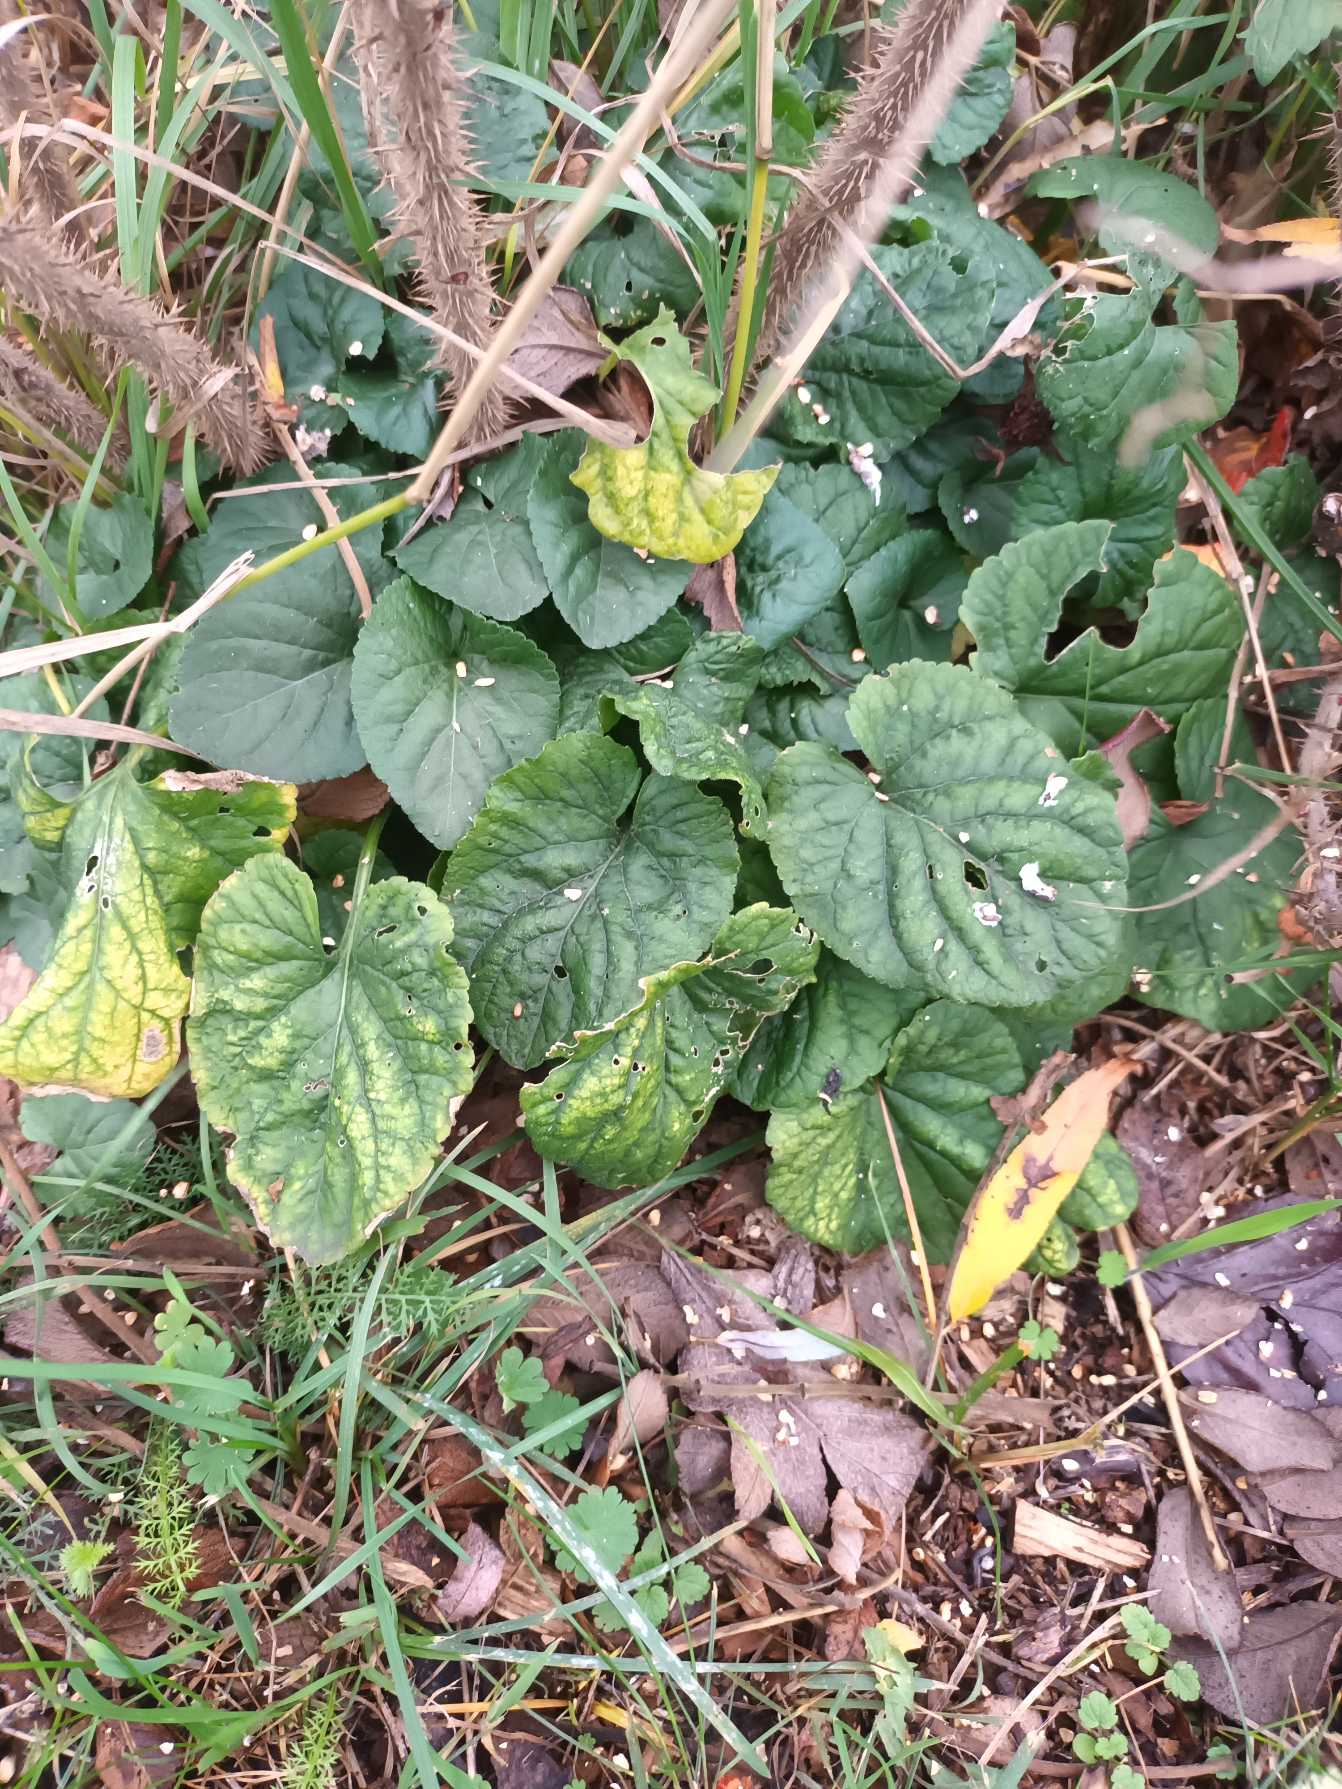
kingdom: Plantae
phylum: Tracheophyta
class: Magnoliopsida
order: Malpighiales
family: Violaceae
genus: Viola
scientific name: Viola odorata
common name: Marts-viol
